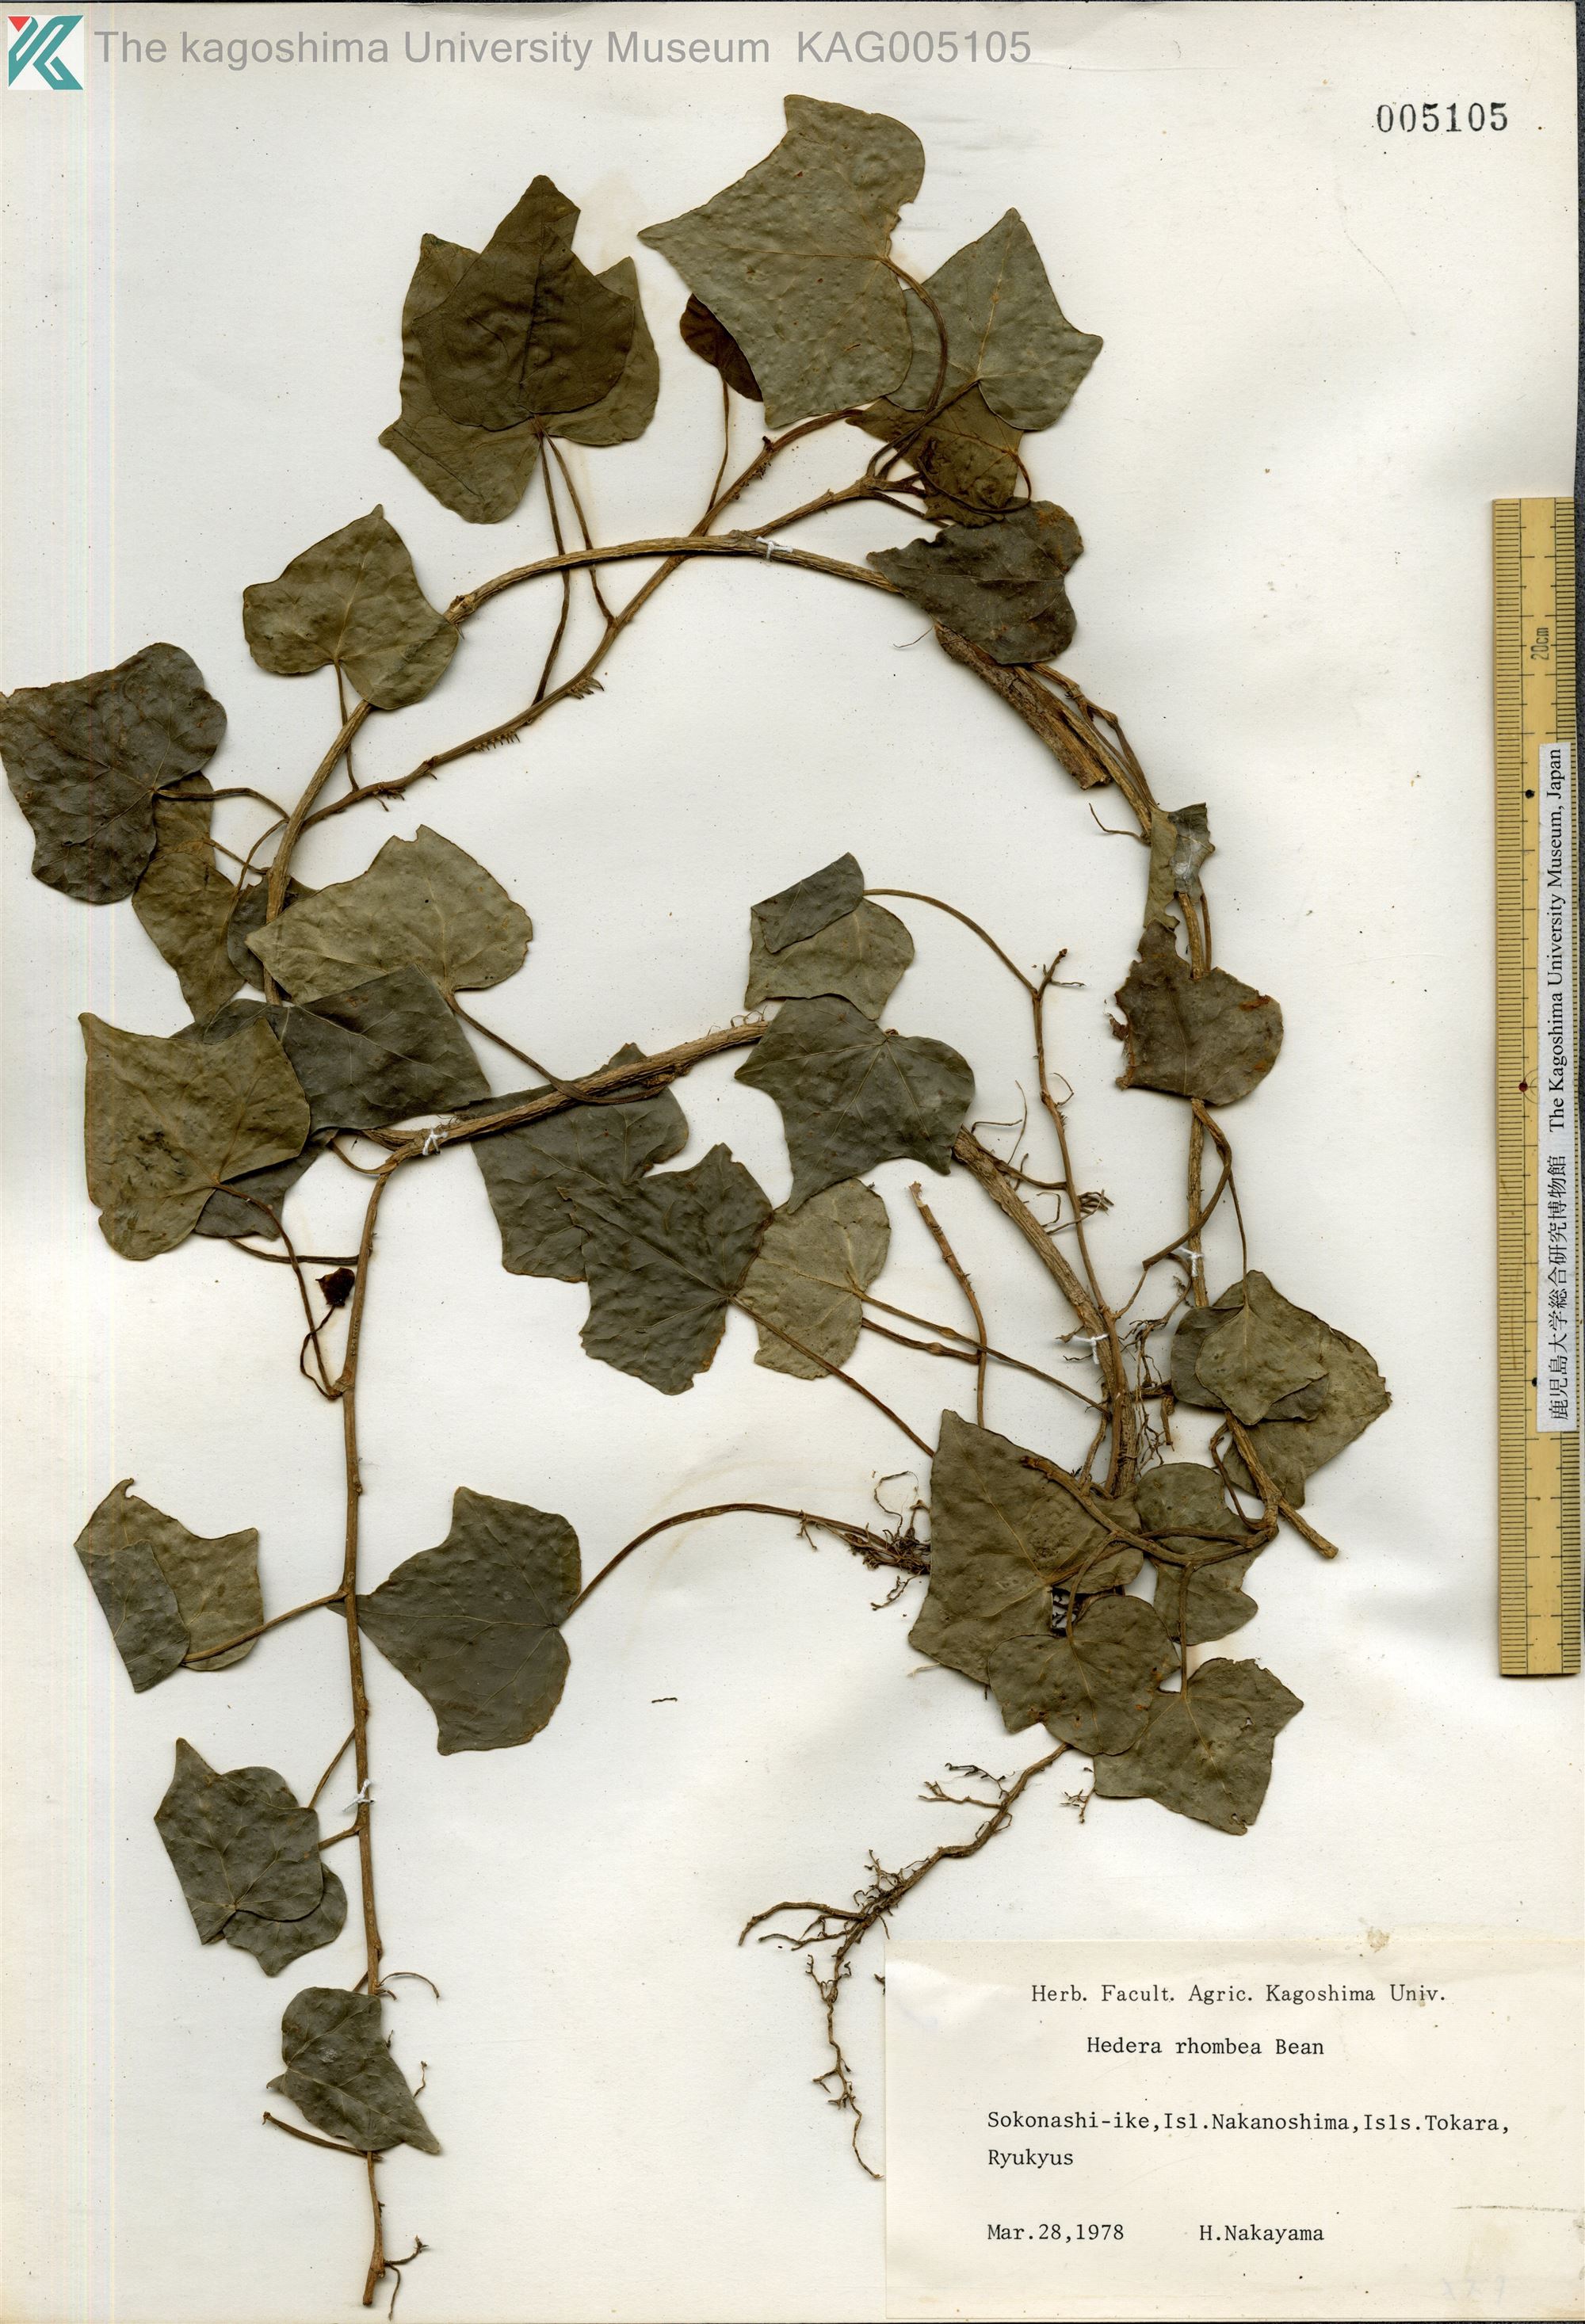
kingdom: Plantae
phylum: Tracheophyta
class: Magnoliopsida
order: Apiales
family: Araliaceae
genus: Hedera
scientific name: Hedera rhombea
